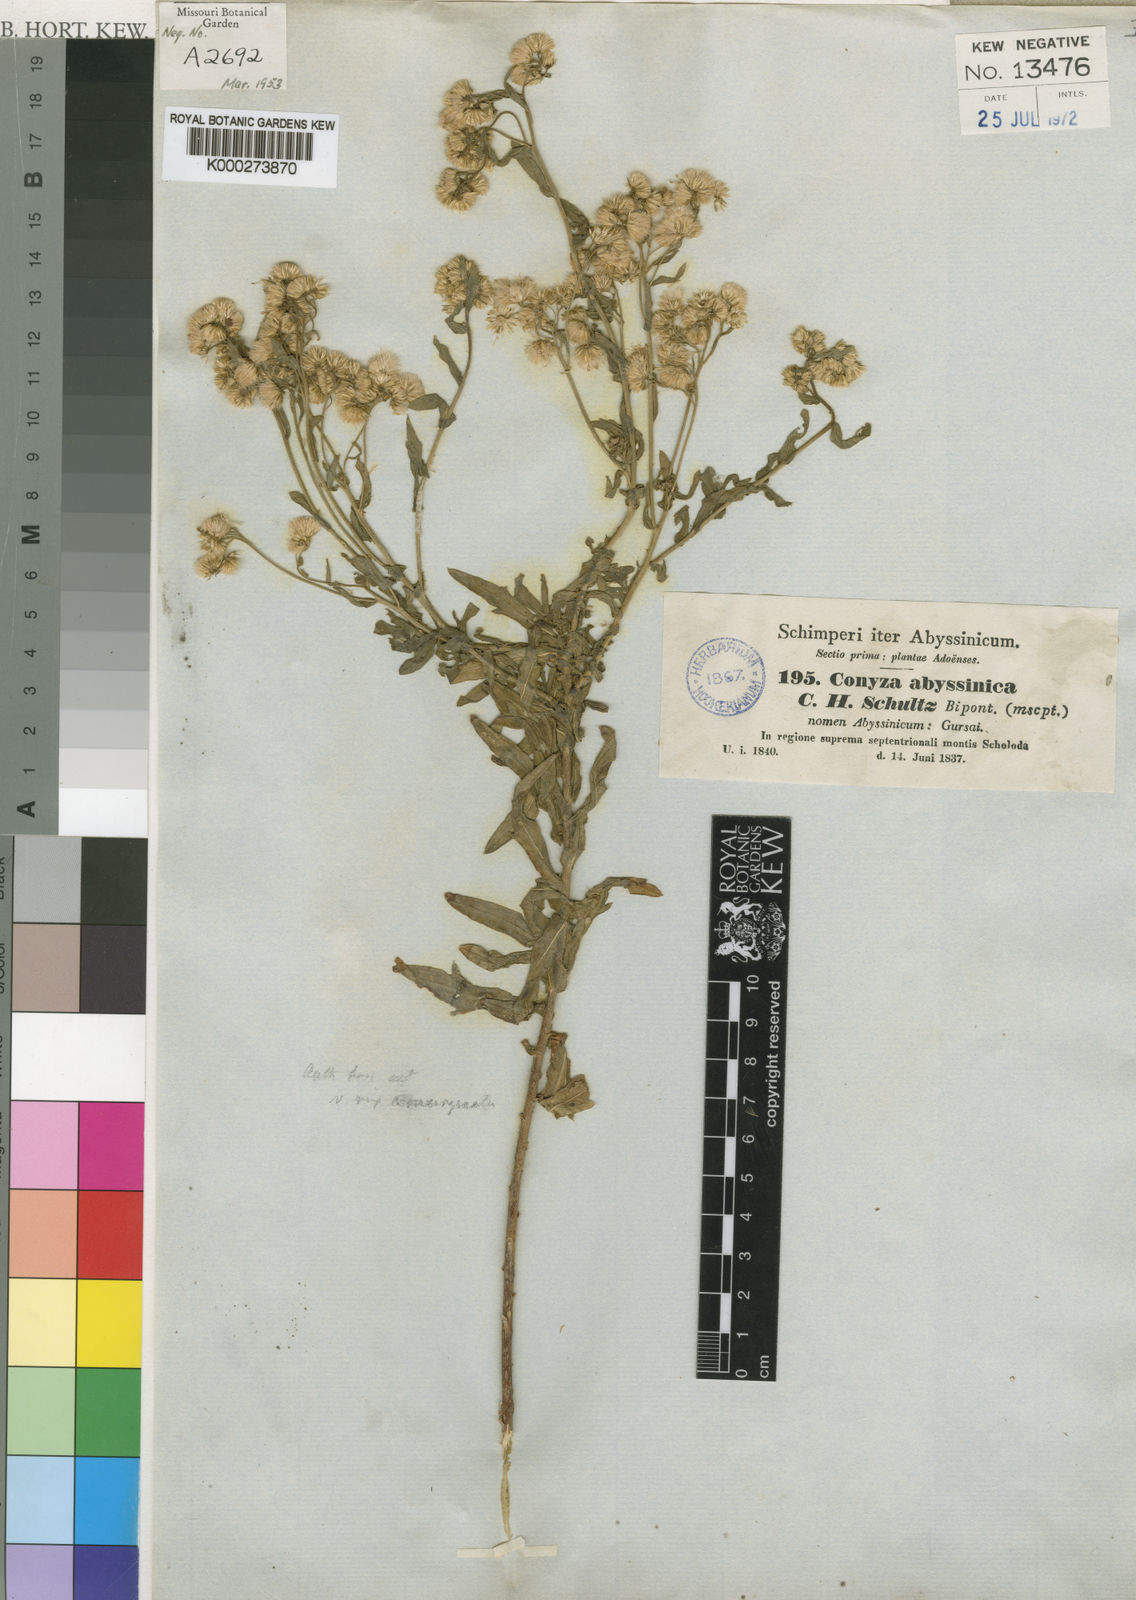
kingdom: Plantae
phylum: Tracheophyta
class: Magnoliopsida
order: Asterales
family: Asteraceae
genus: Conyza
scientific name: Conyza abyssinica
